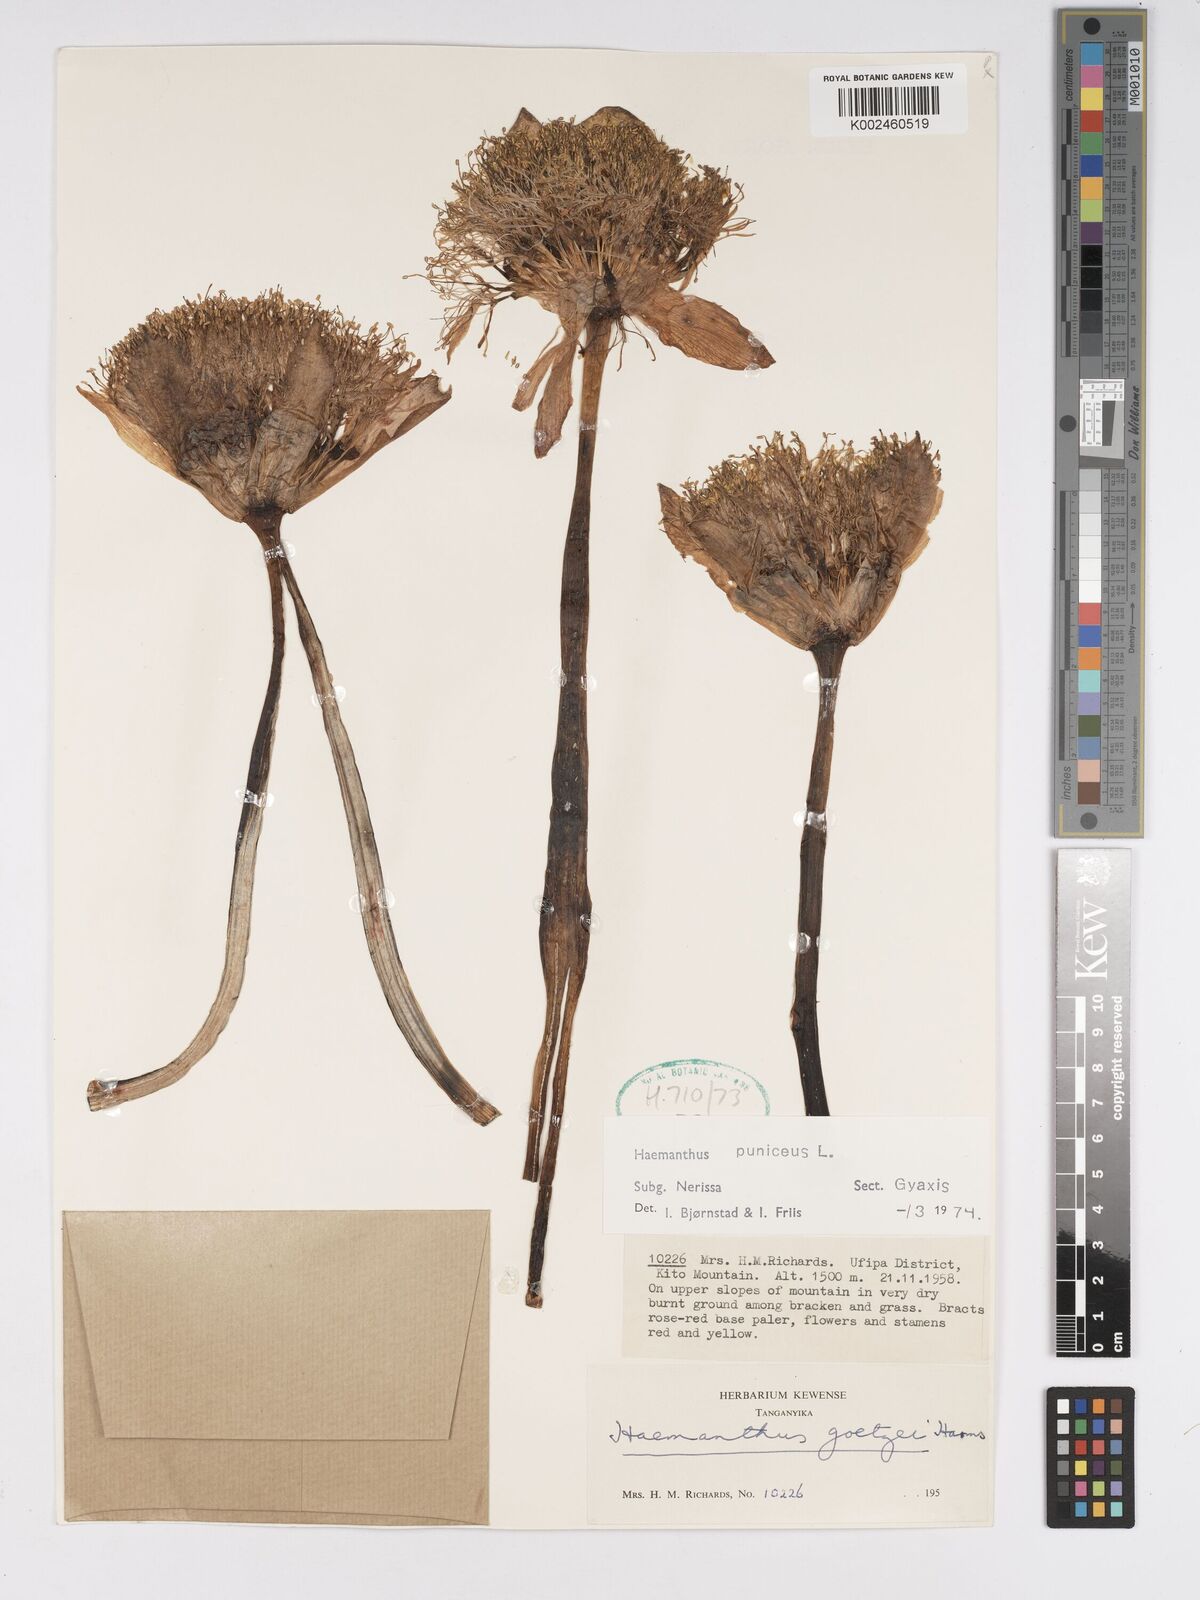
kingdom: Plantae
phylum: Tracheophyta
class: Liliopsida
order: Asparagales
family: Amaryllidaceae
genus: Scadoxus
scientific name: Scadoxus puniceus
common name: Royal-paintbrush
